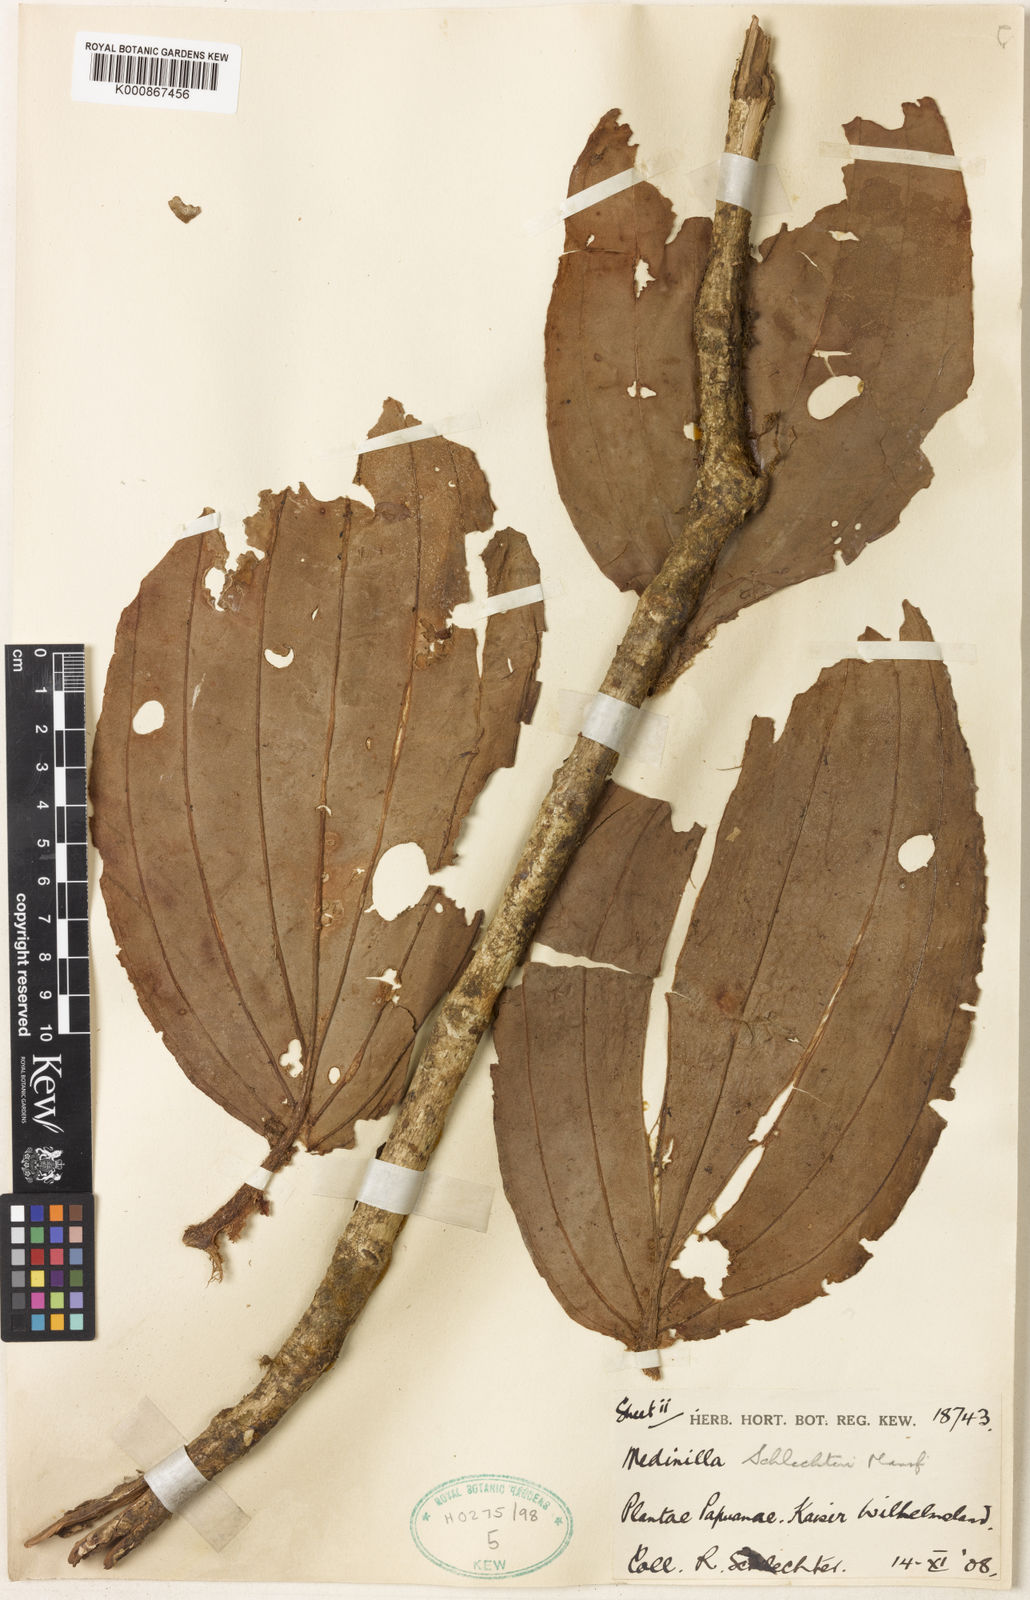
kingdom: Plantae
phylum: Tracheophyta
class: Magnoliopsida
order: Myrtales
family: Melastomataceae
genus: Medinilla
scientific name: Medinilla schlechteri
